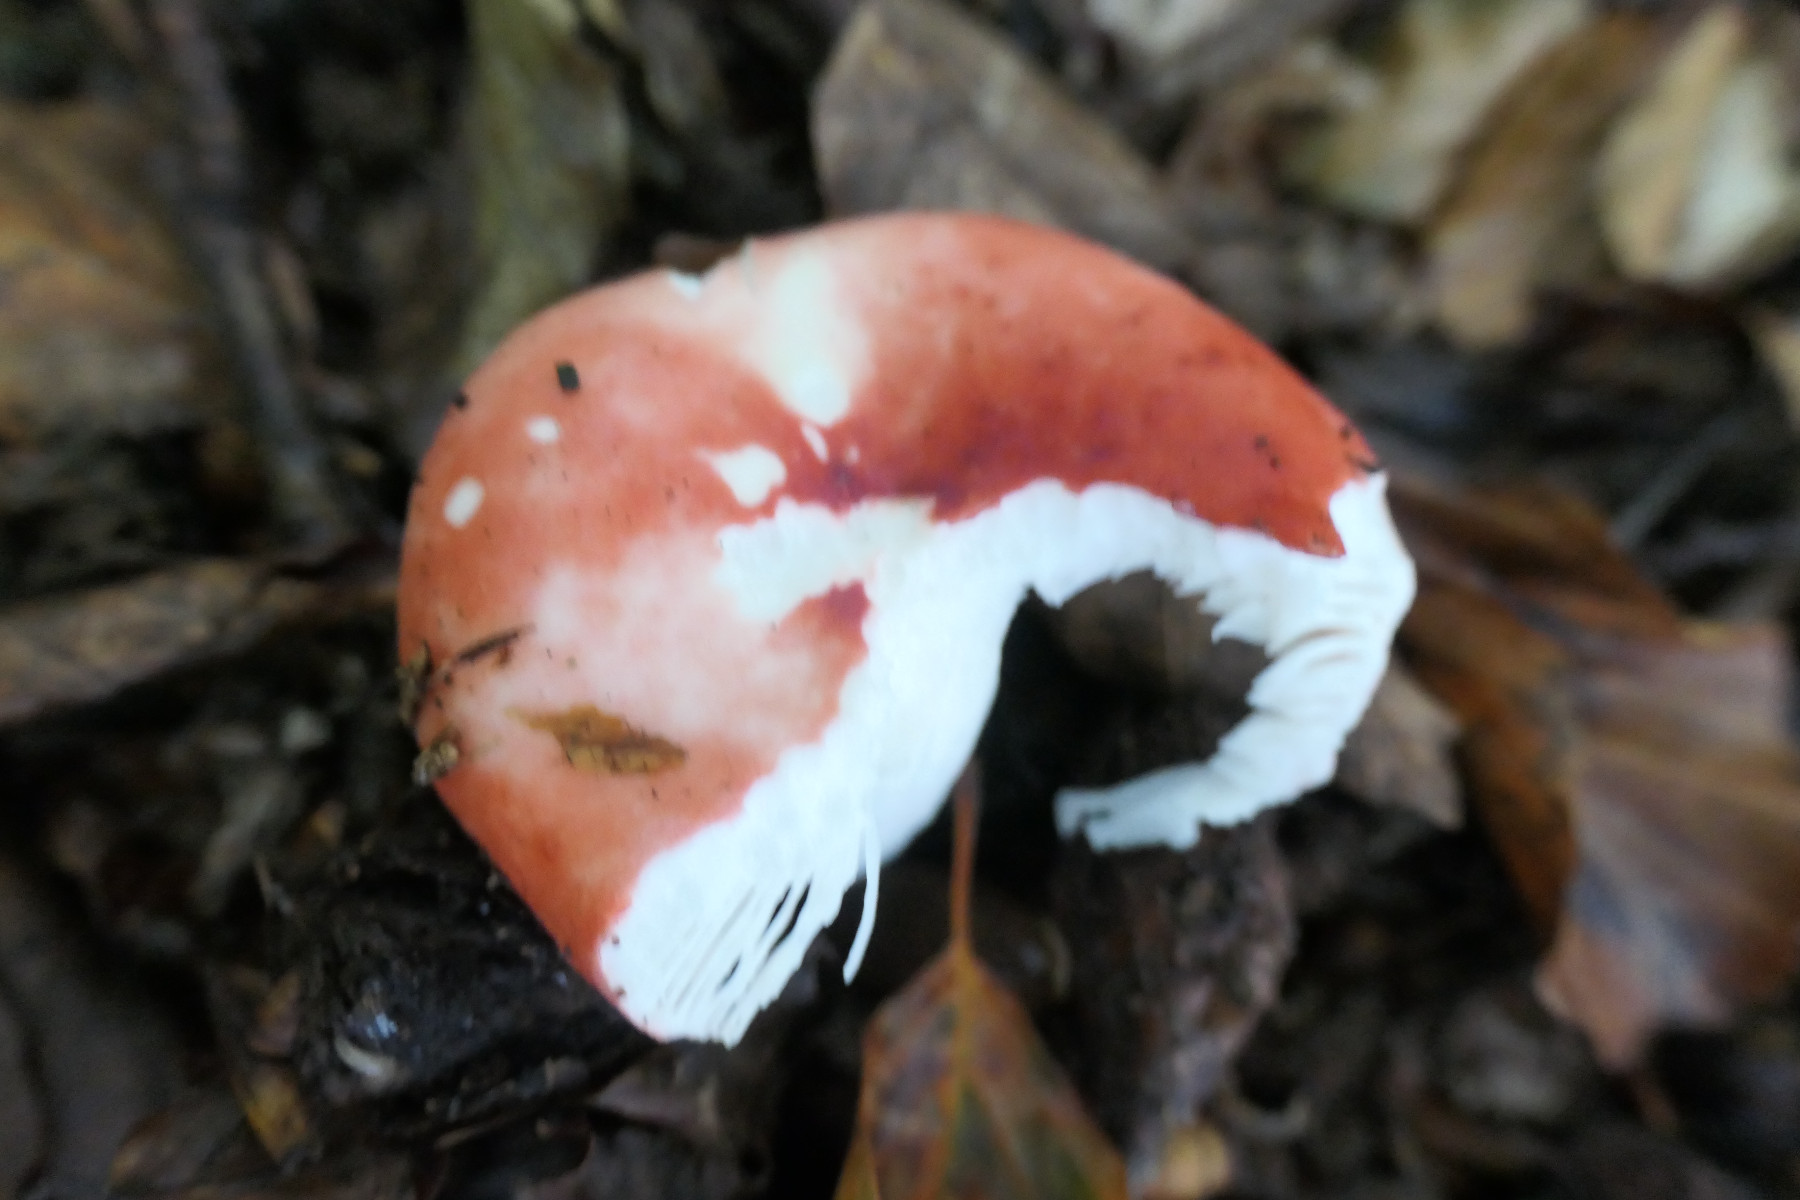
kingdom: Fungi
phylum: Basidiomycota
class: Agaricomycetes
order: Russulales
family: Russulaceae
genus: Russula
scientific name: Russula nobilis
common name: lille gift-skørhat
